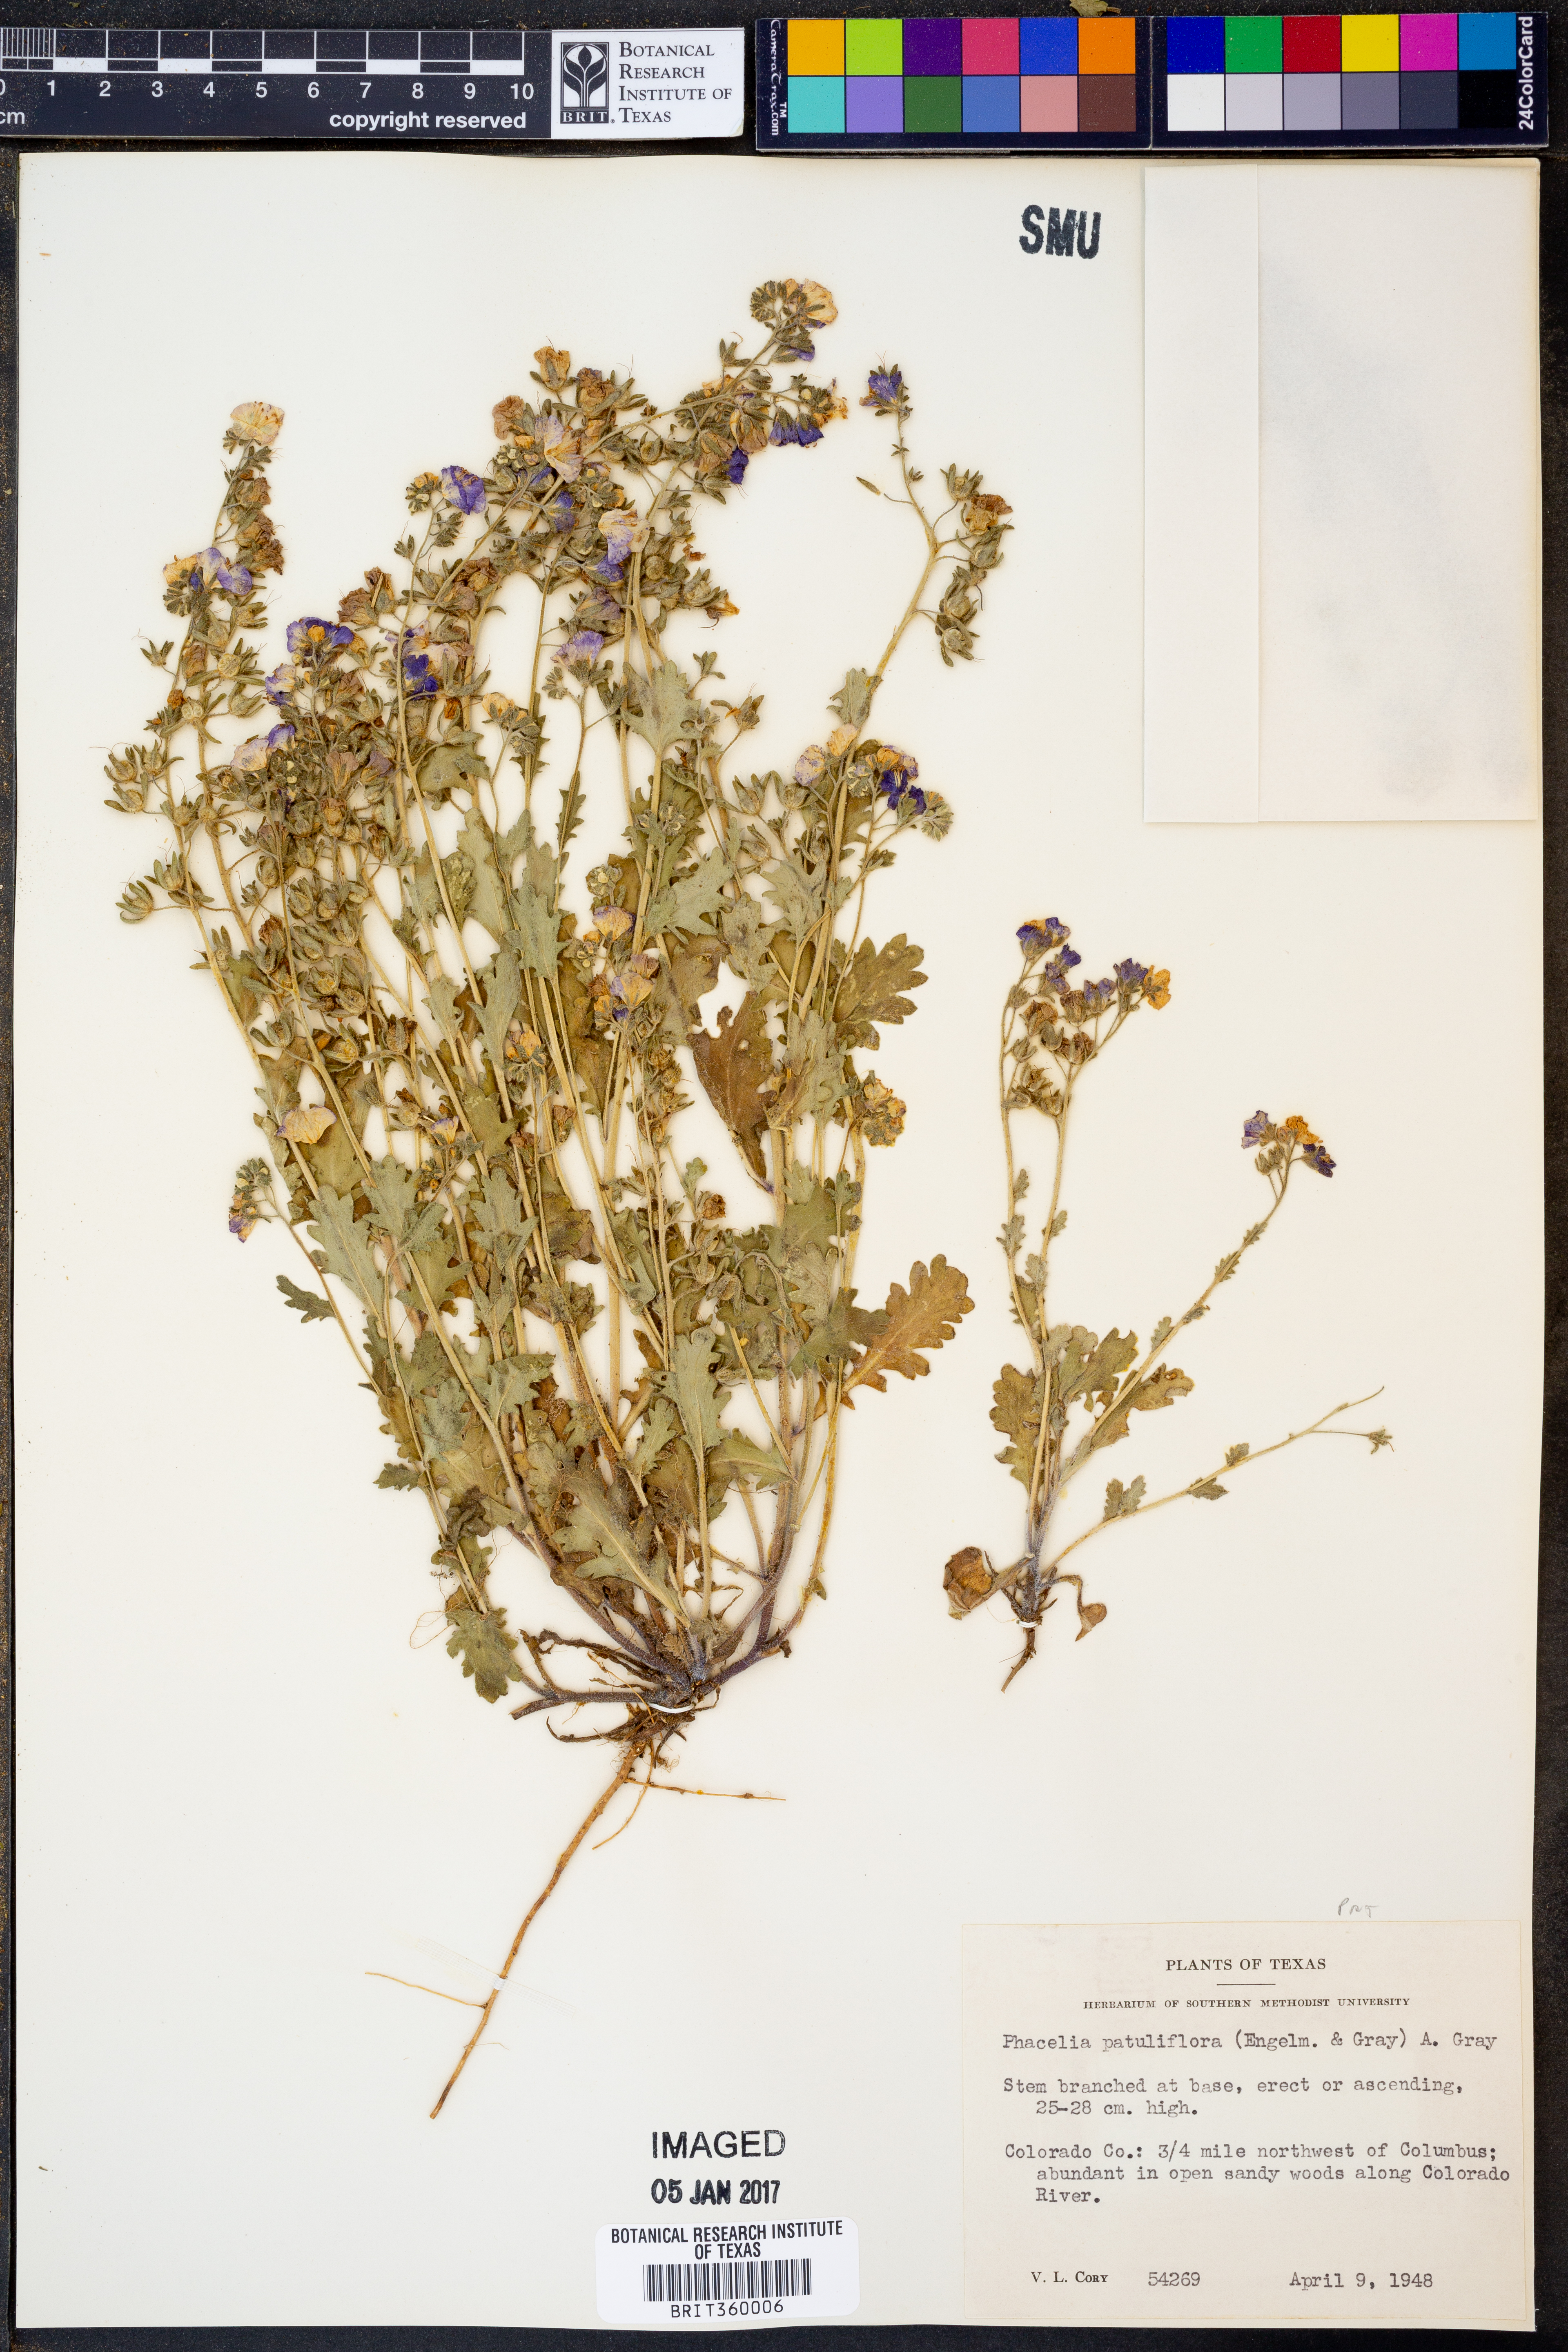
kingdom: Plantae
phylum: Tracheophyta
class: Magnoliopsida
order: Boraginales
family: Hydrophyllaceae
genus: Phacelia
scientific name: Phacelia patuliflora
